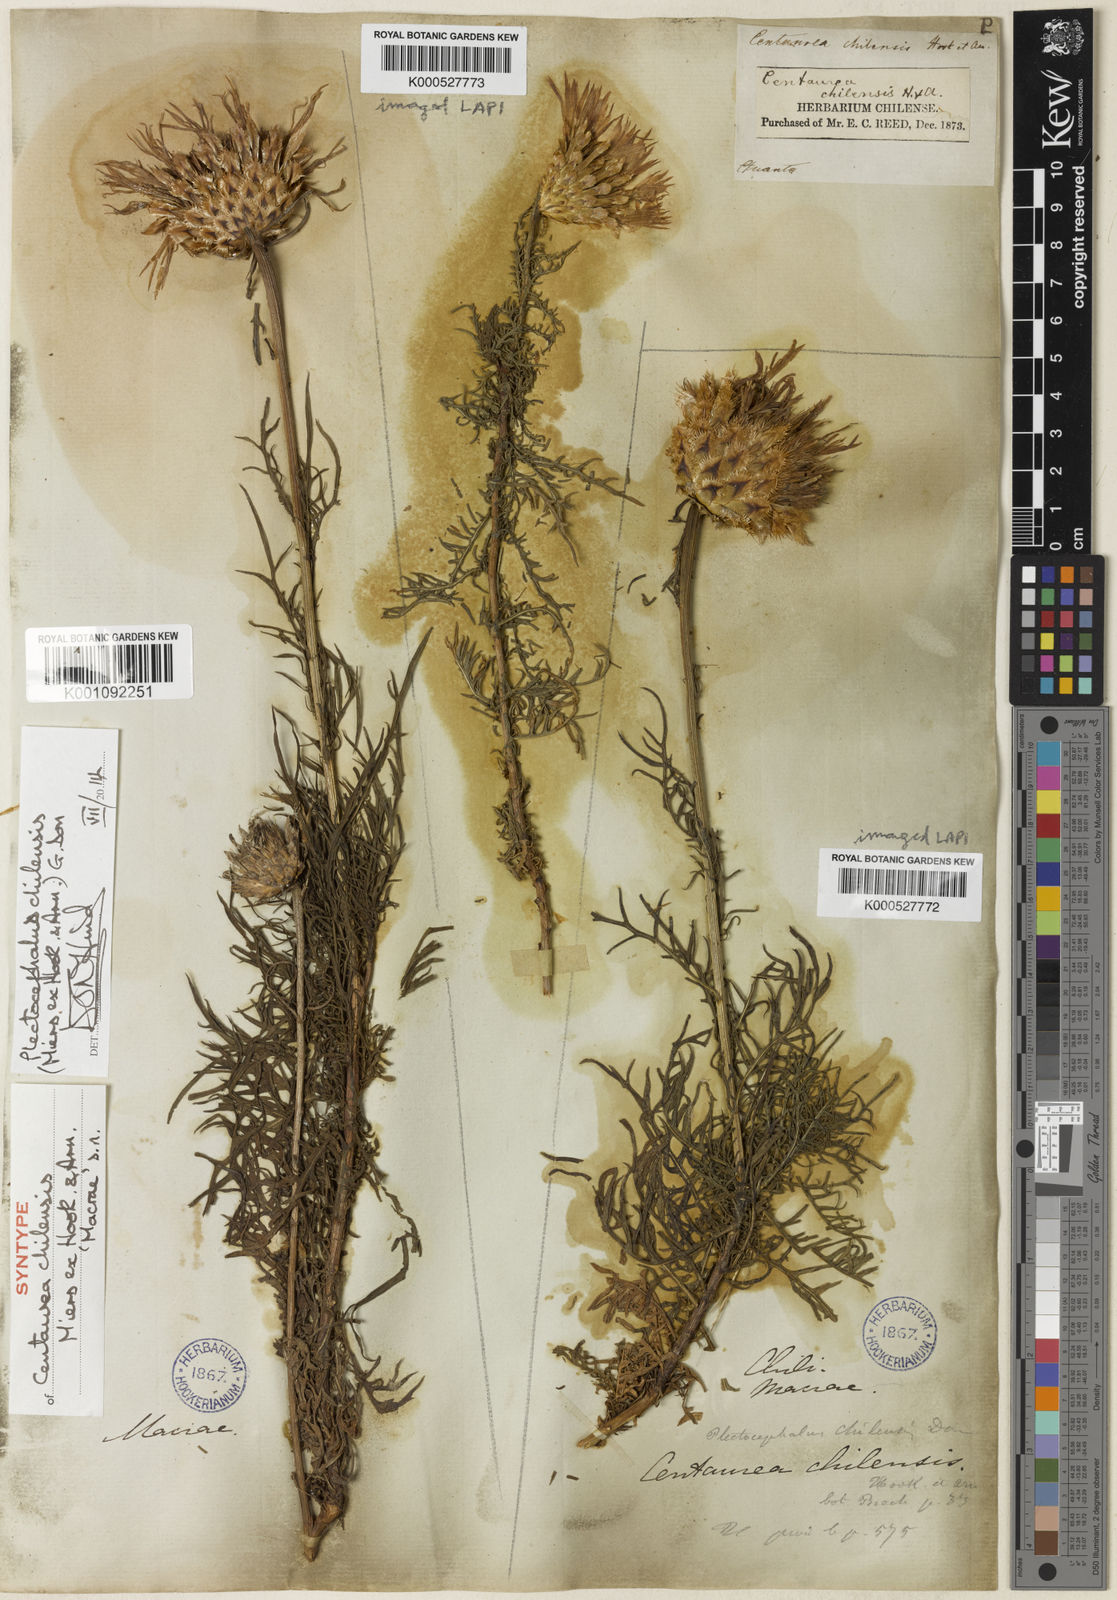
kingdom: Plantae
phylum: Tracheophyta
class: Magnoliopsida
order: Asterales
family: Asteraceae
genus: Plectocephalus
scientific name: Plectocephalus chilensis
